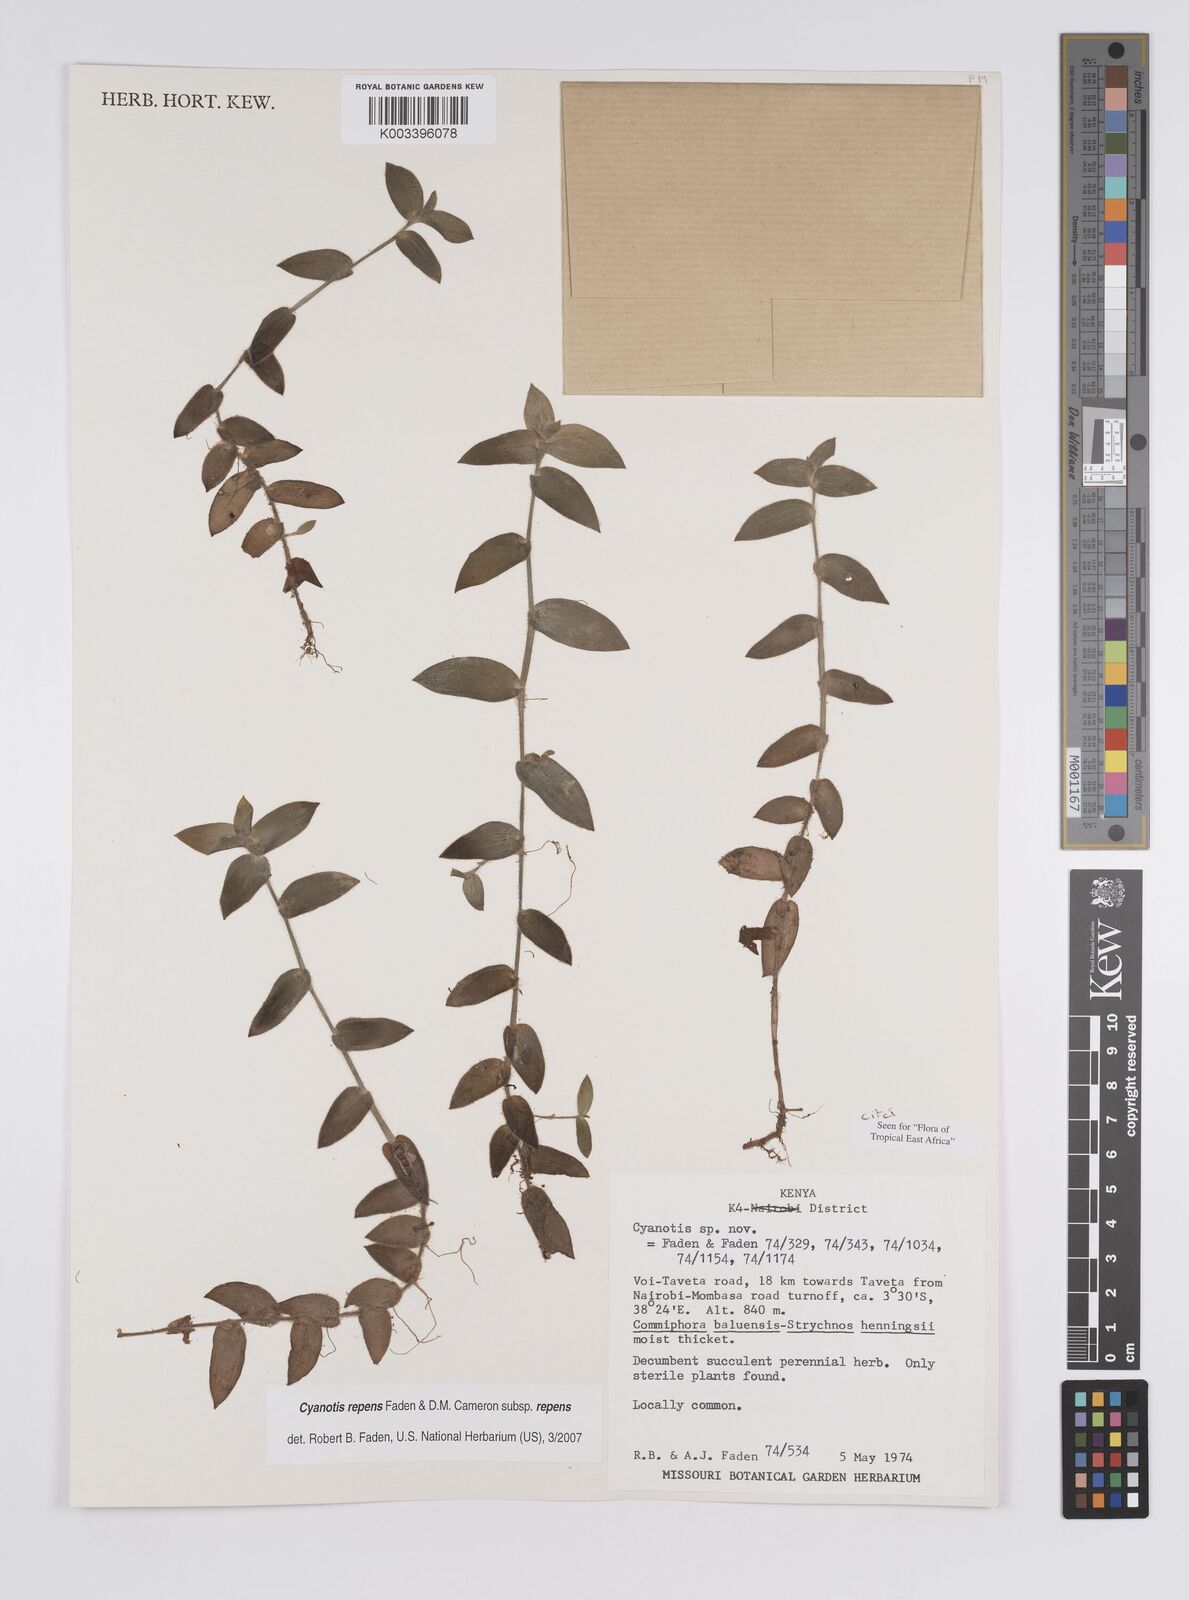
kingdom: Plantae
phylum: Tracheophyta
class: Liliopsida
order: Commelinales
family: Commelinaceae
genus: Cyanotis
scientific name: Cyanotis repens
